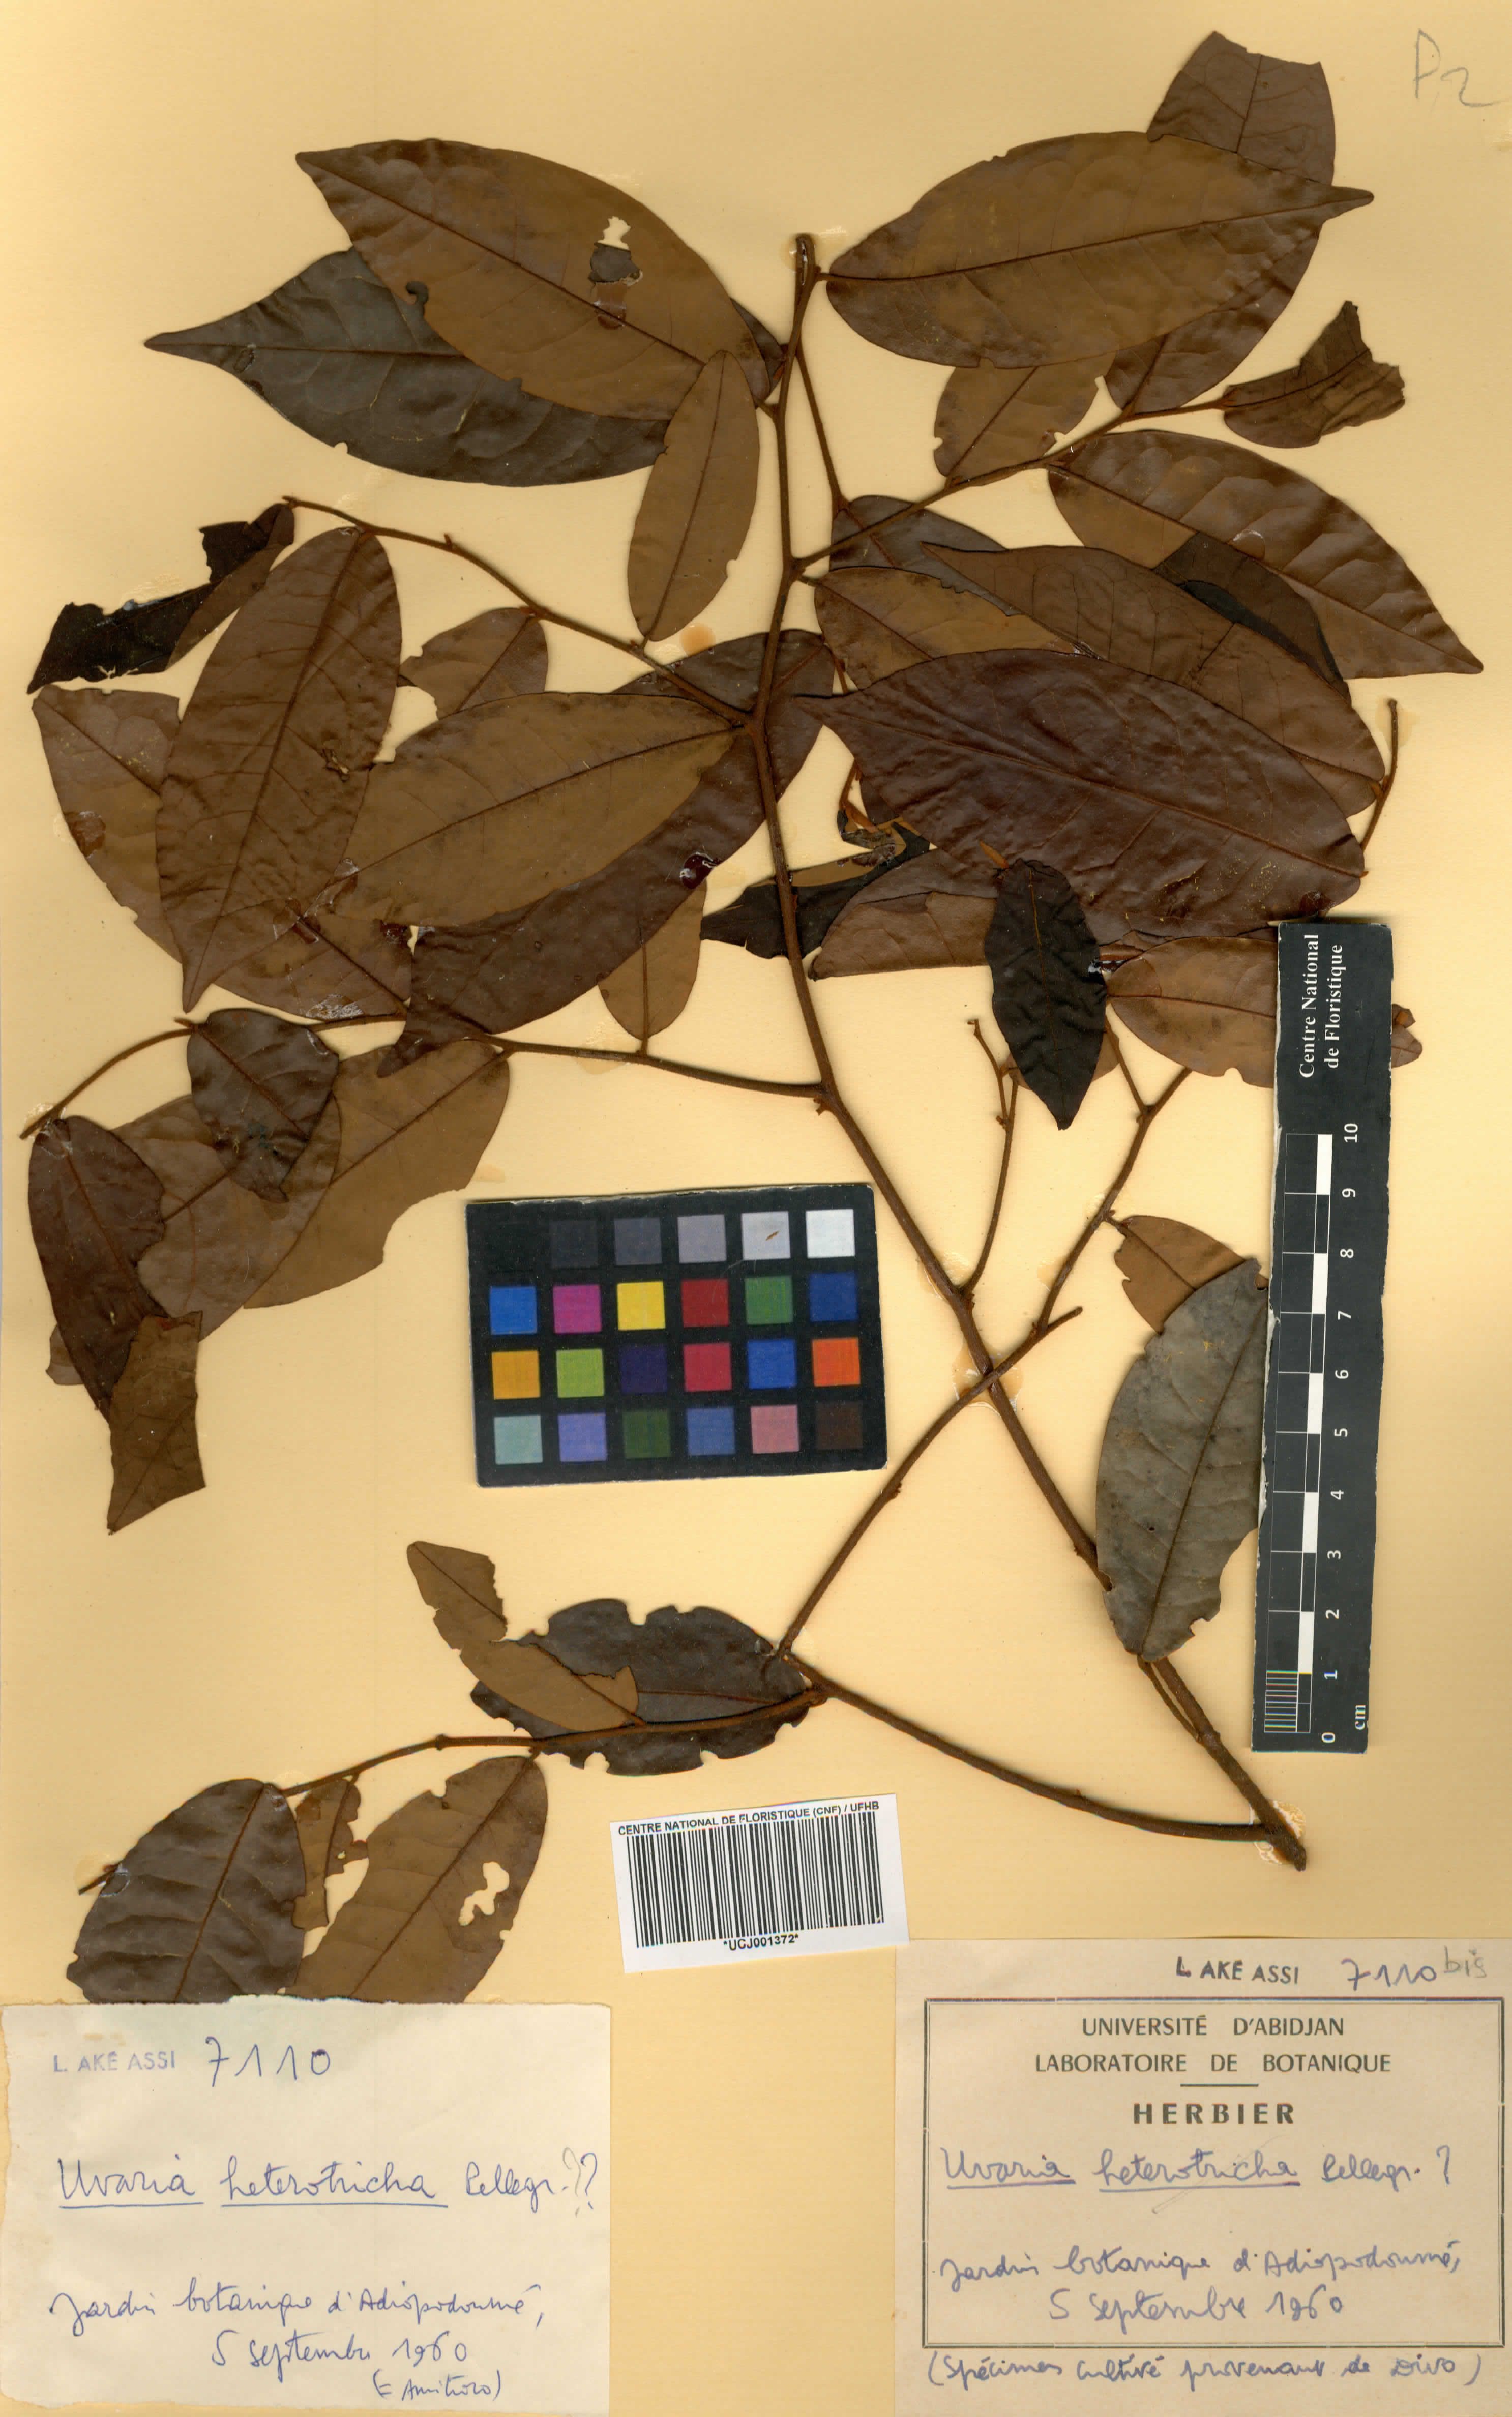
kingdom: Plantae
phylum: Tracheophyta
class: Magnoliopsida
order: Magnoliales
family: Annonaceae
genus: Uvaria
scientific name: Uvaria heterotricha
